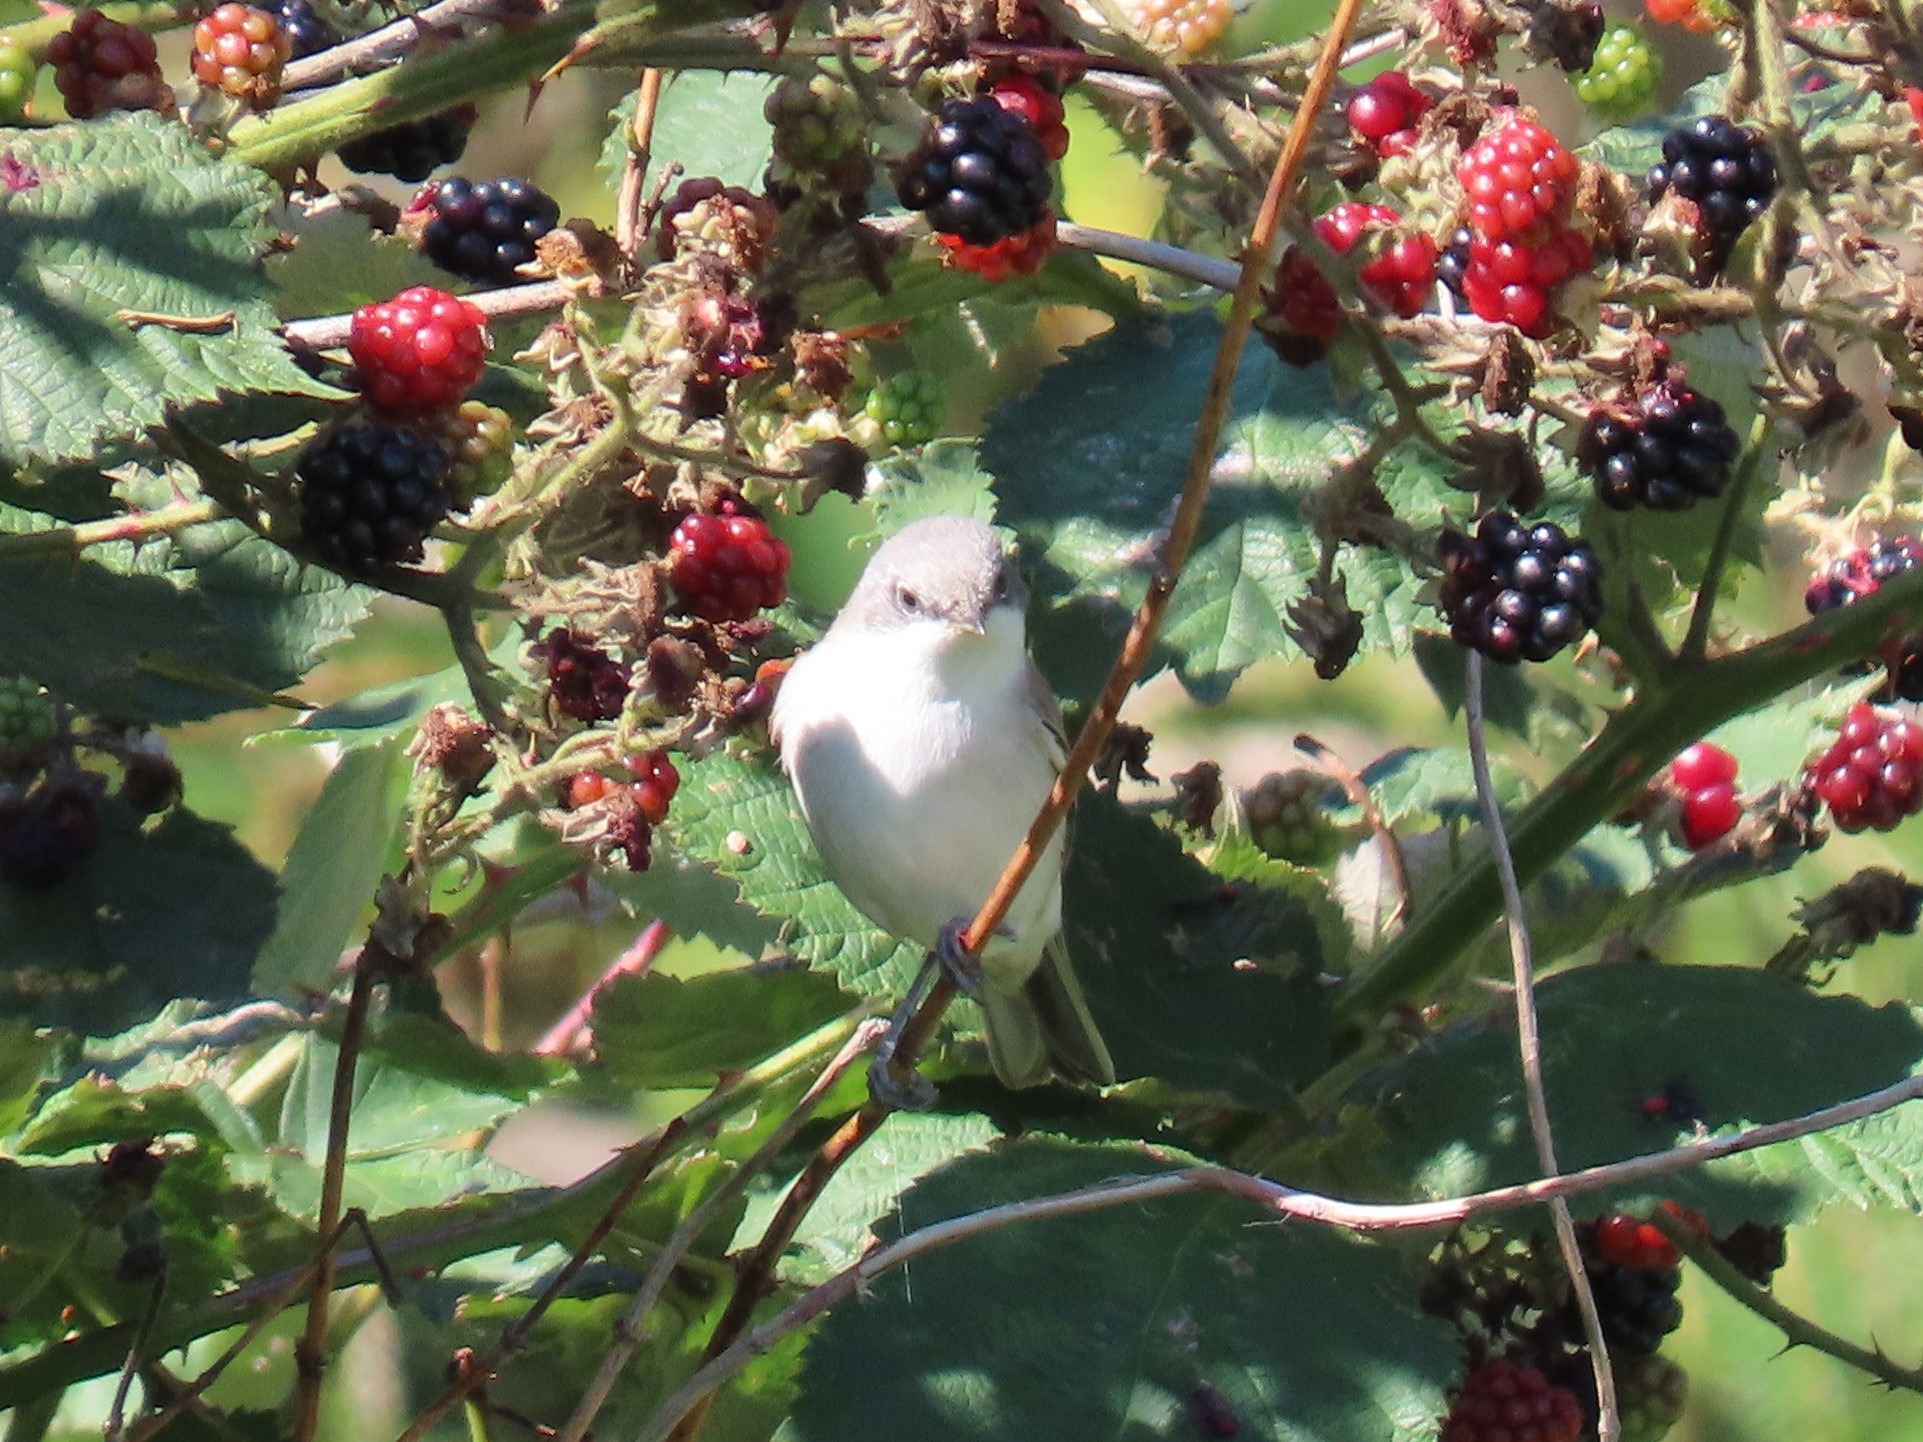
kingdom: Animalia
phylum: Chordata
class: Aves
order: Passeriformes
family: Sylviidae
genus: Sylvia
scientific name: Sylvia curruca
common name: Gærdesanger
